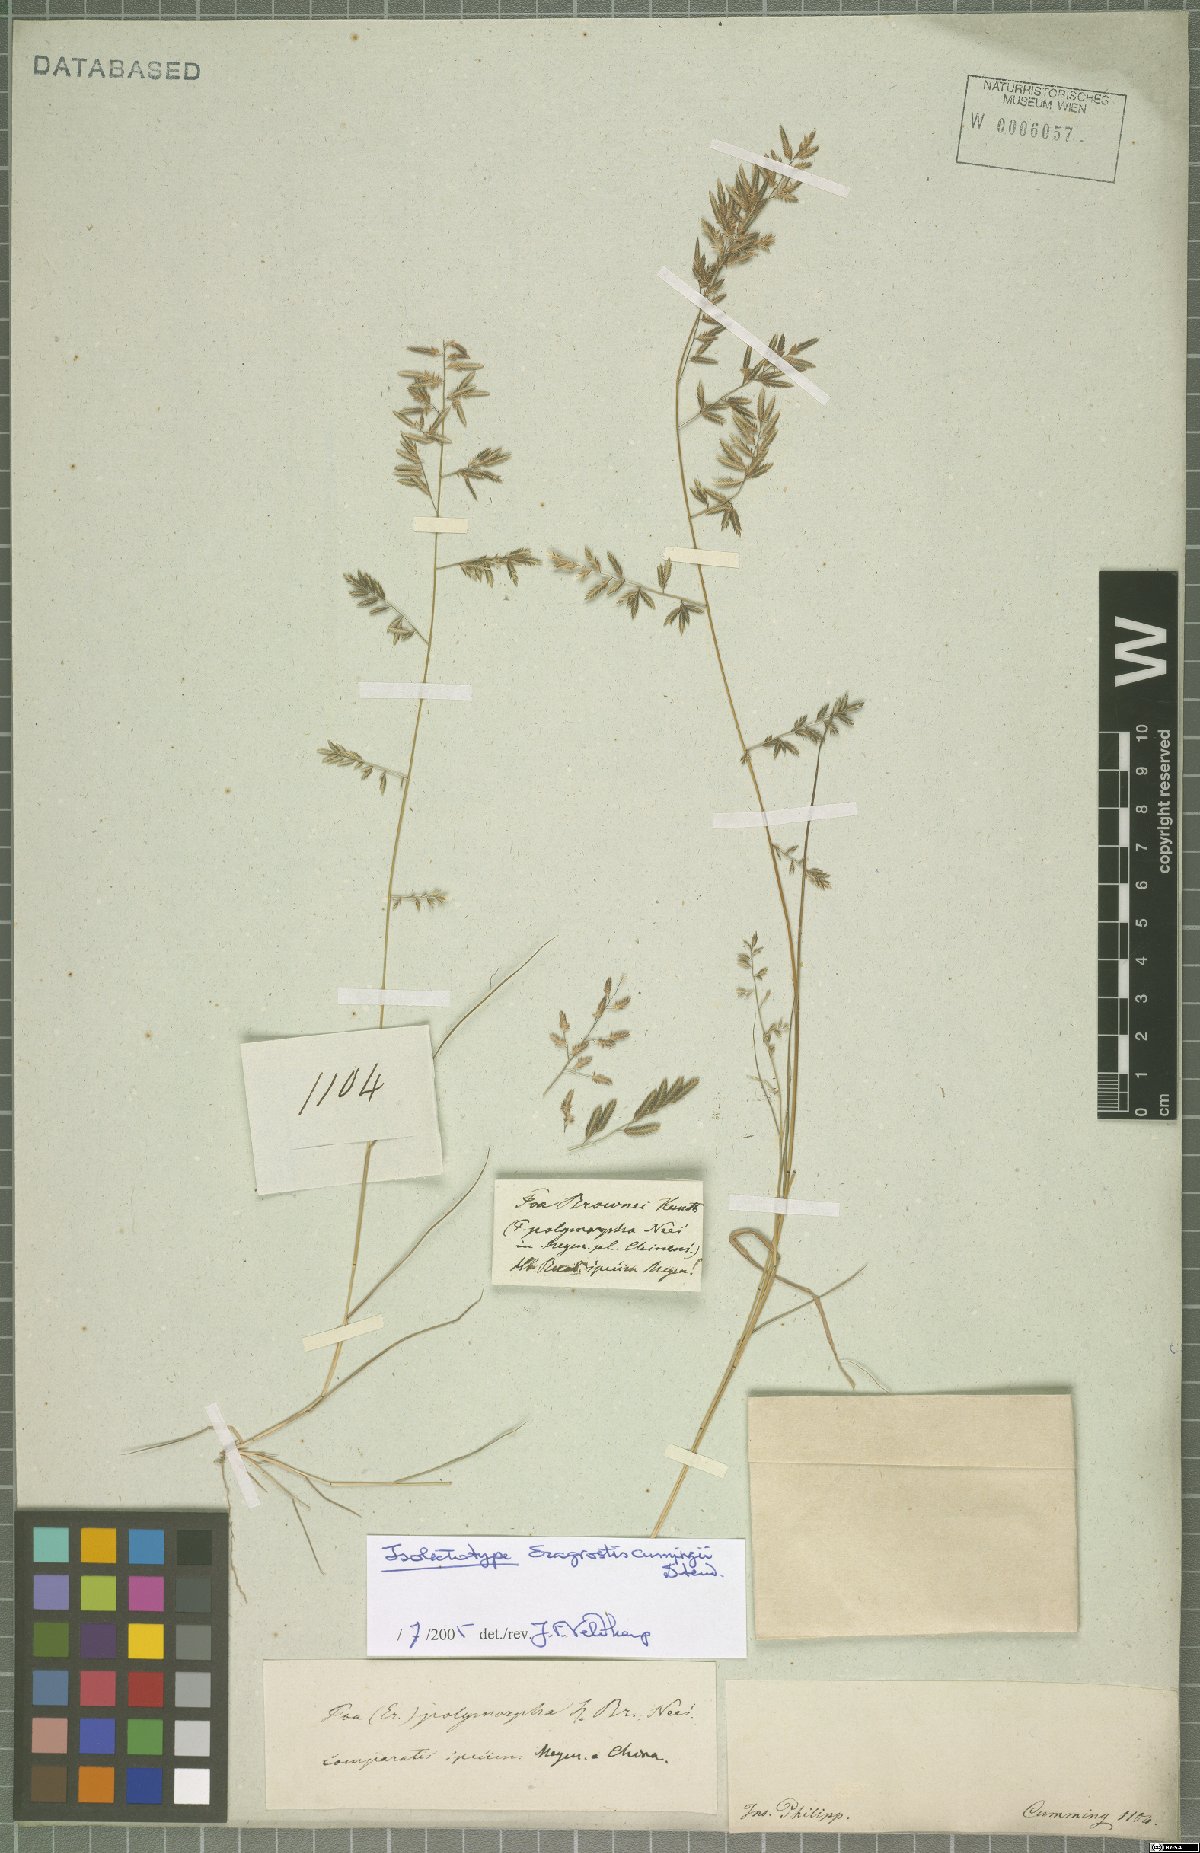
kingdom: Plantae
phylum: Tracheophyta
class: Liliopsida
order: Poales
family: Poaceae
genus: Eragrostis
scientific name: Eragrostis cumingii
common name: Cuming's lovegrass
